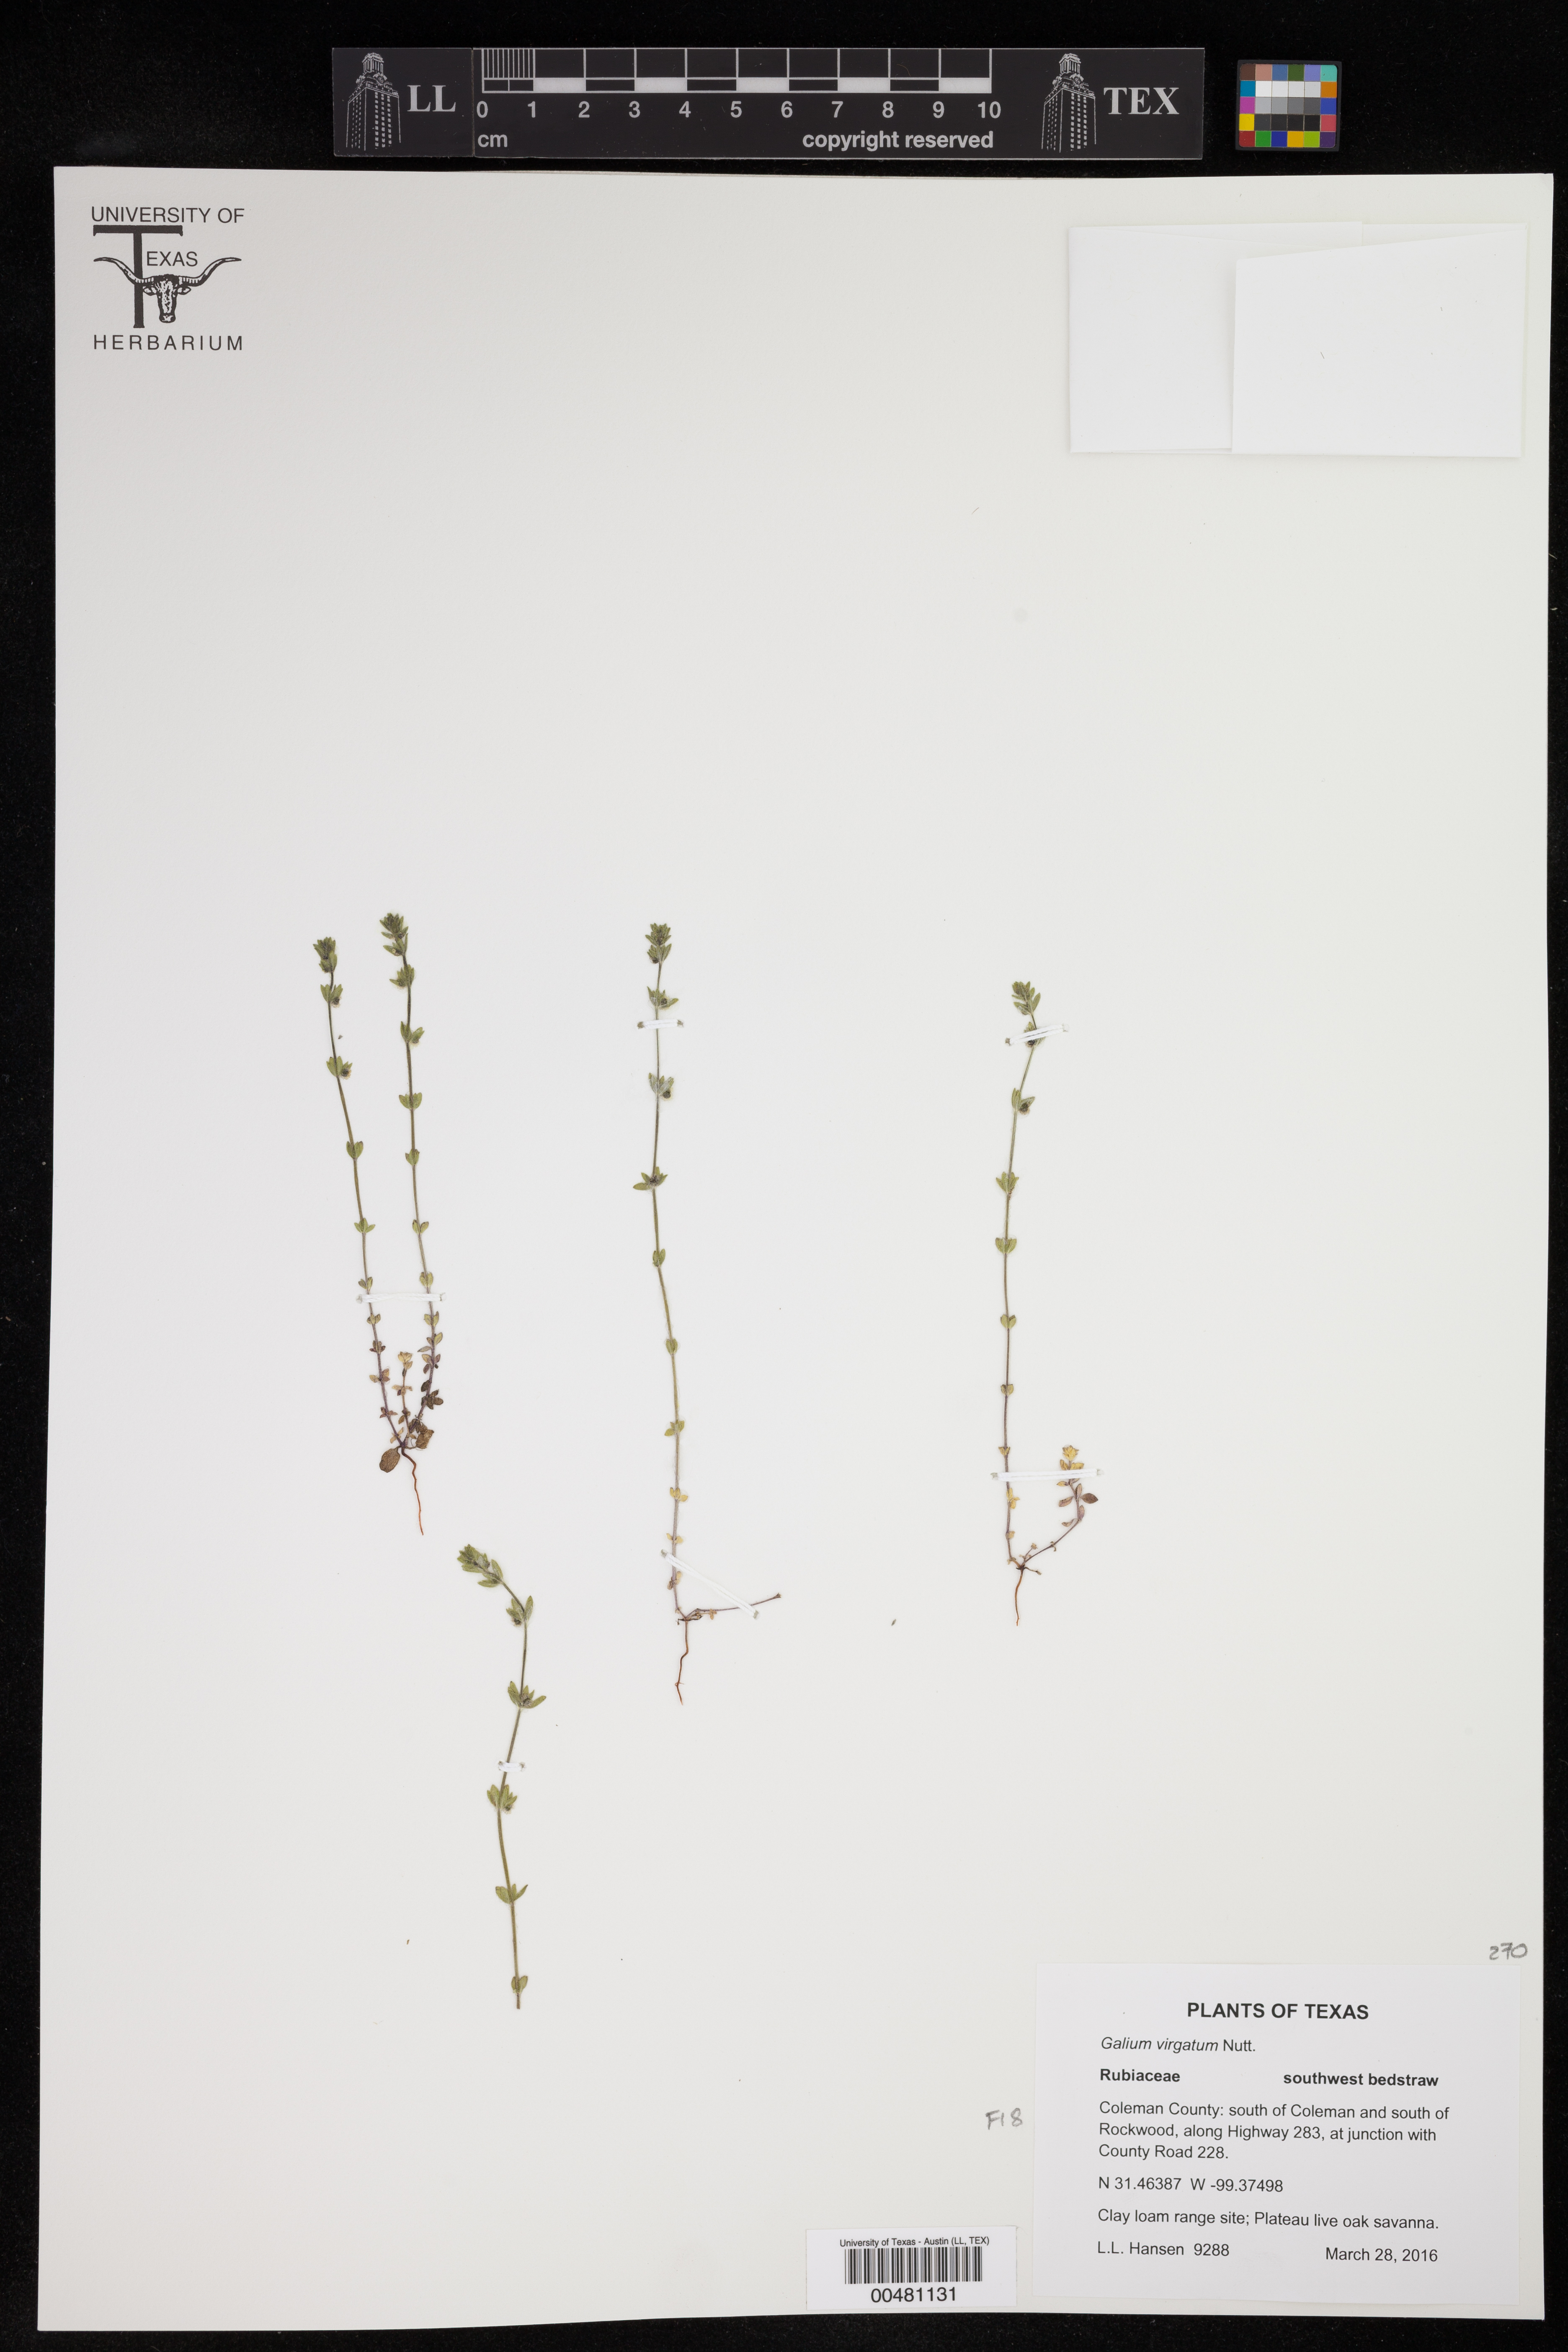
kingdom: Plantae
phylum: Tracheophyta
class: Magnoliopsida
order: Gentianales
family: Rubiaceae
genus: Galium
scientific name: Galium virgatum
